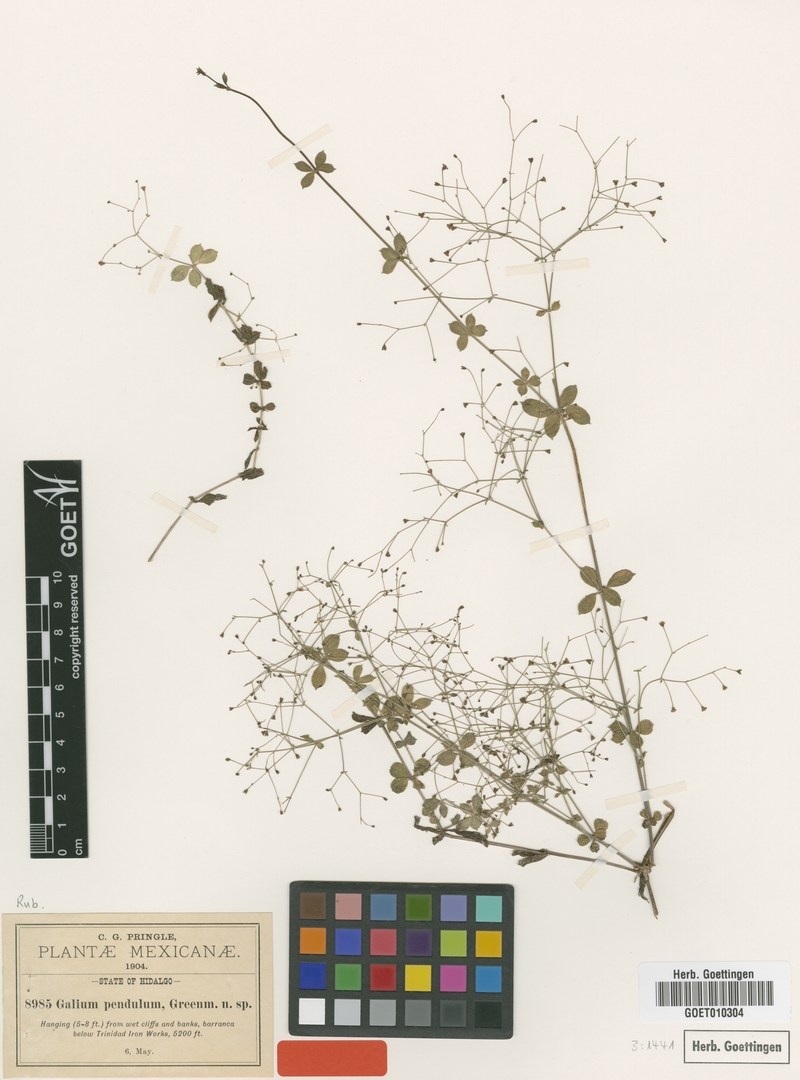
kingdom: Plantae
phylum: Tracheophyta
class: Magnoliopsida
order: Gentianales
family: Rubiaceae
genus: Galium
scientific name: Galium pendulum
